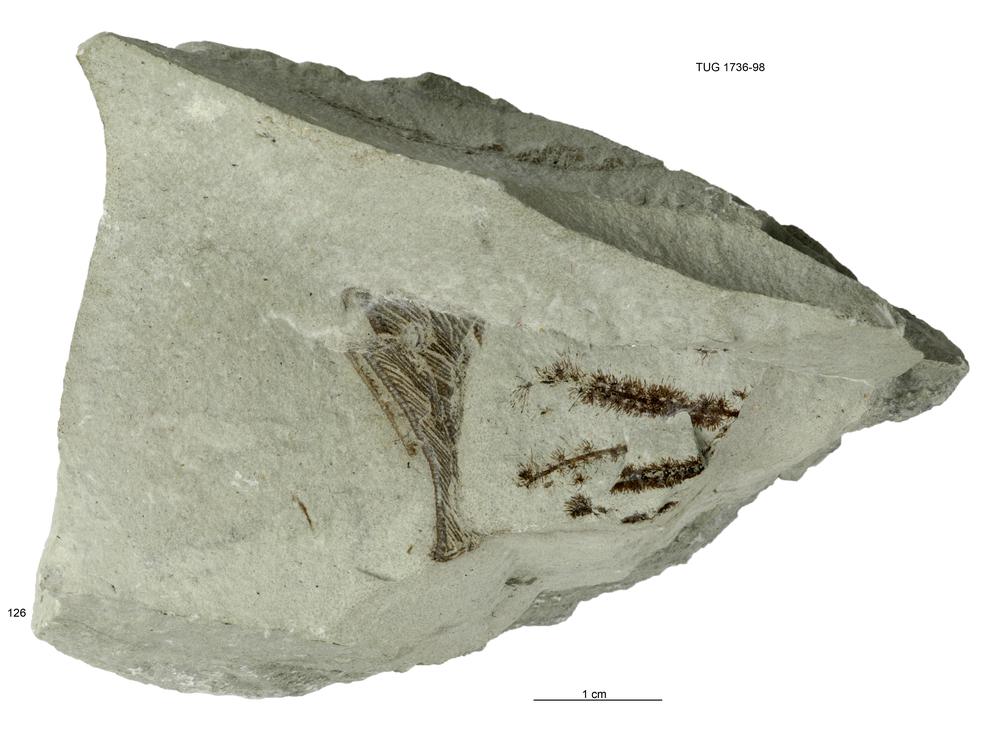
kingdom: Animalia
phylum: Echinodermata
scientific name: Echinodermata
